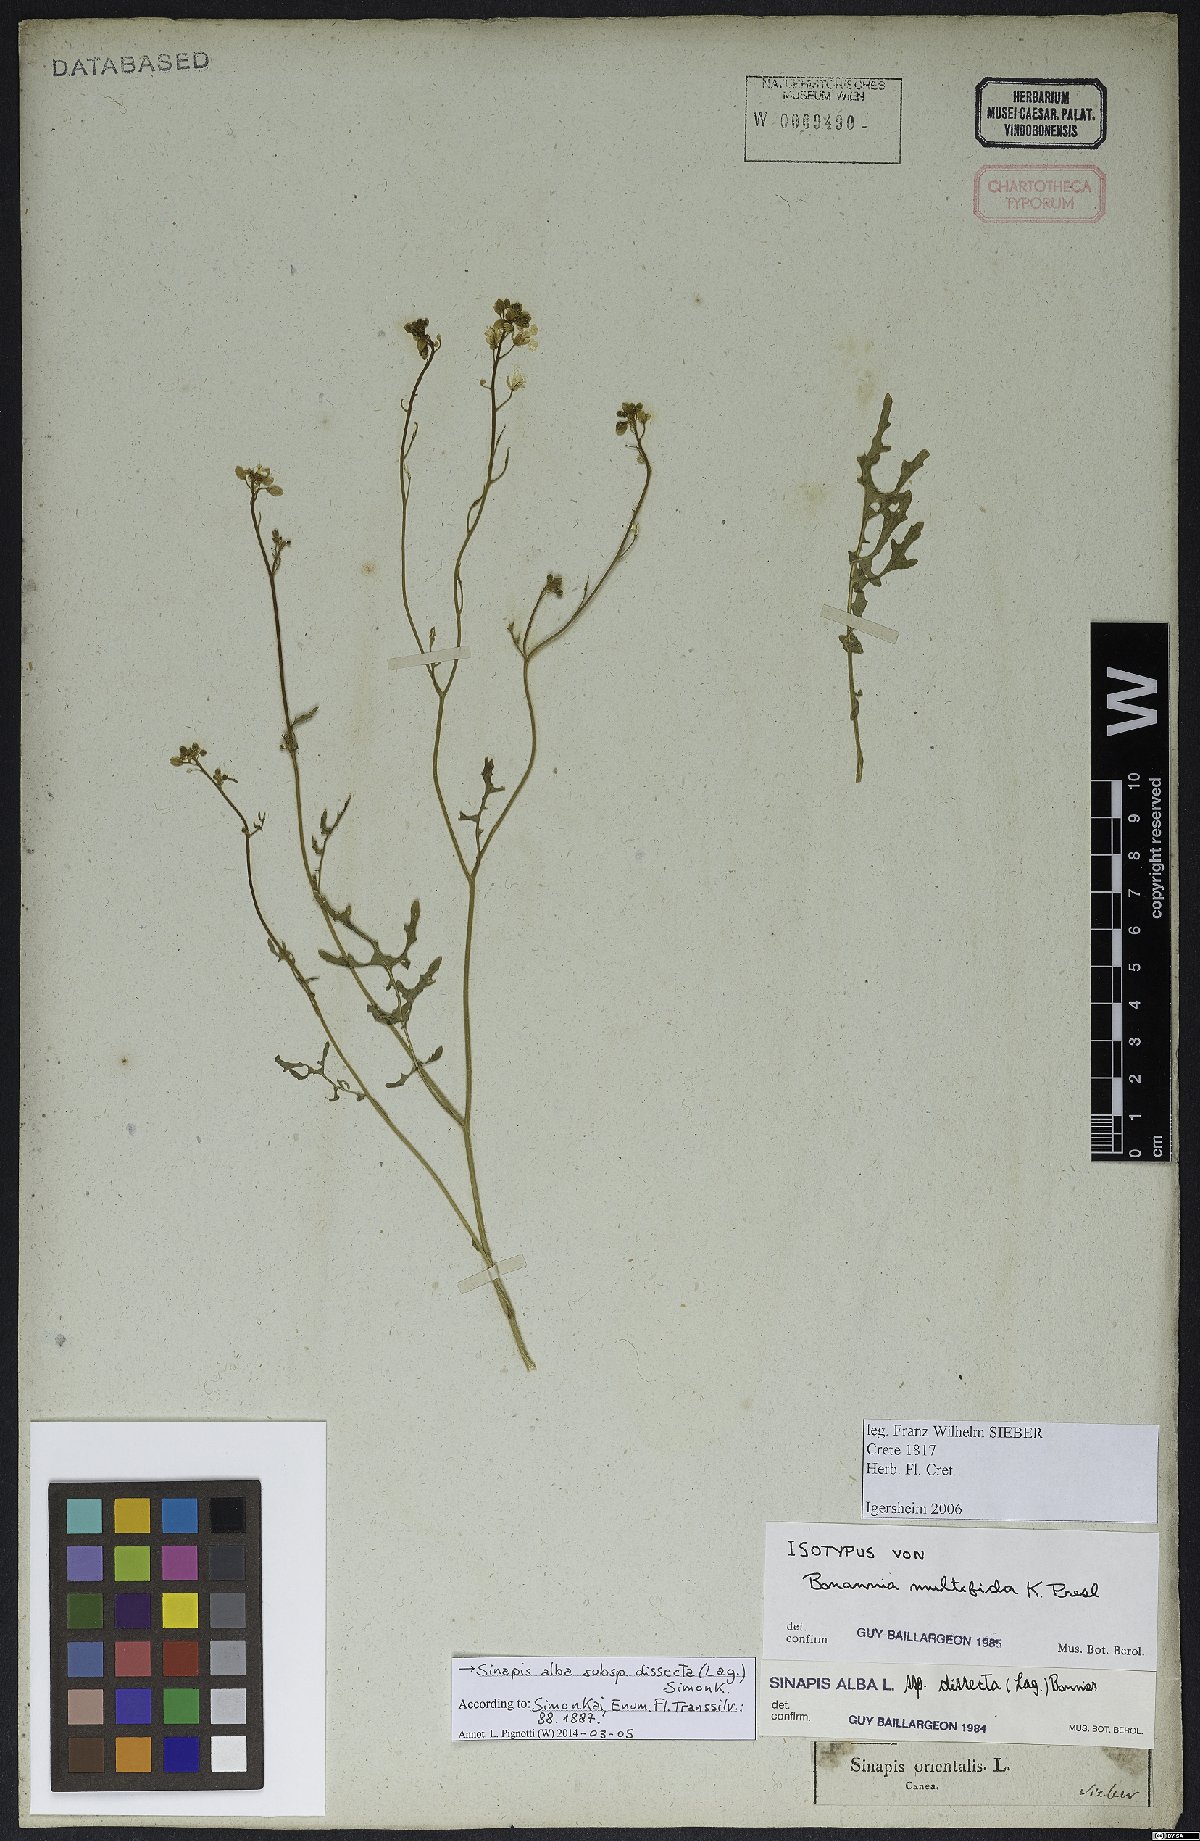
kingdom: Plantae
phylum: Tracheophyta
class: Magnoliopsida
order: Brassicales
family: Brassicaceae
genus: Sinapis
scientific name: Sinapis alba
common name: White mustard
